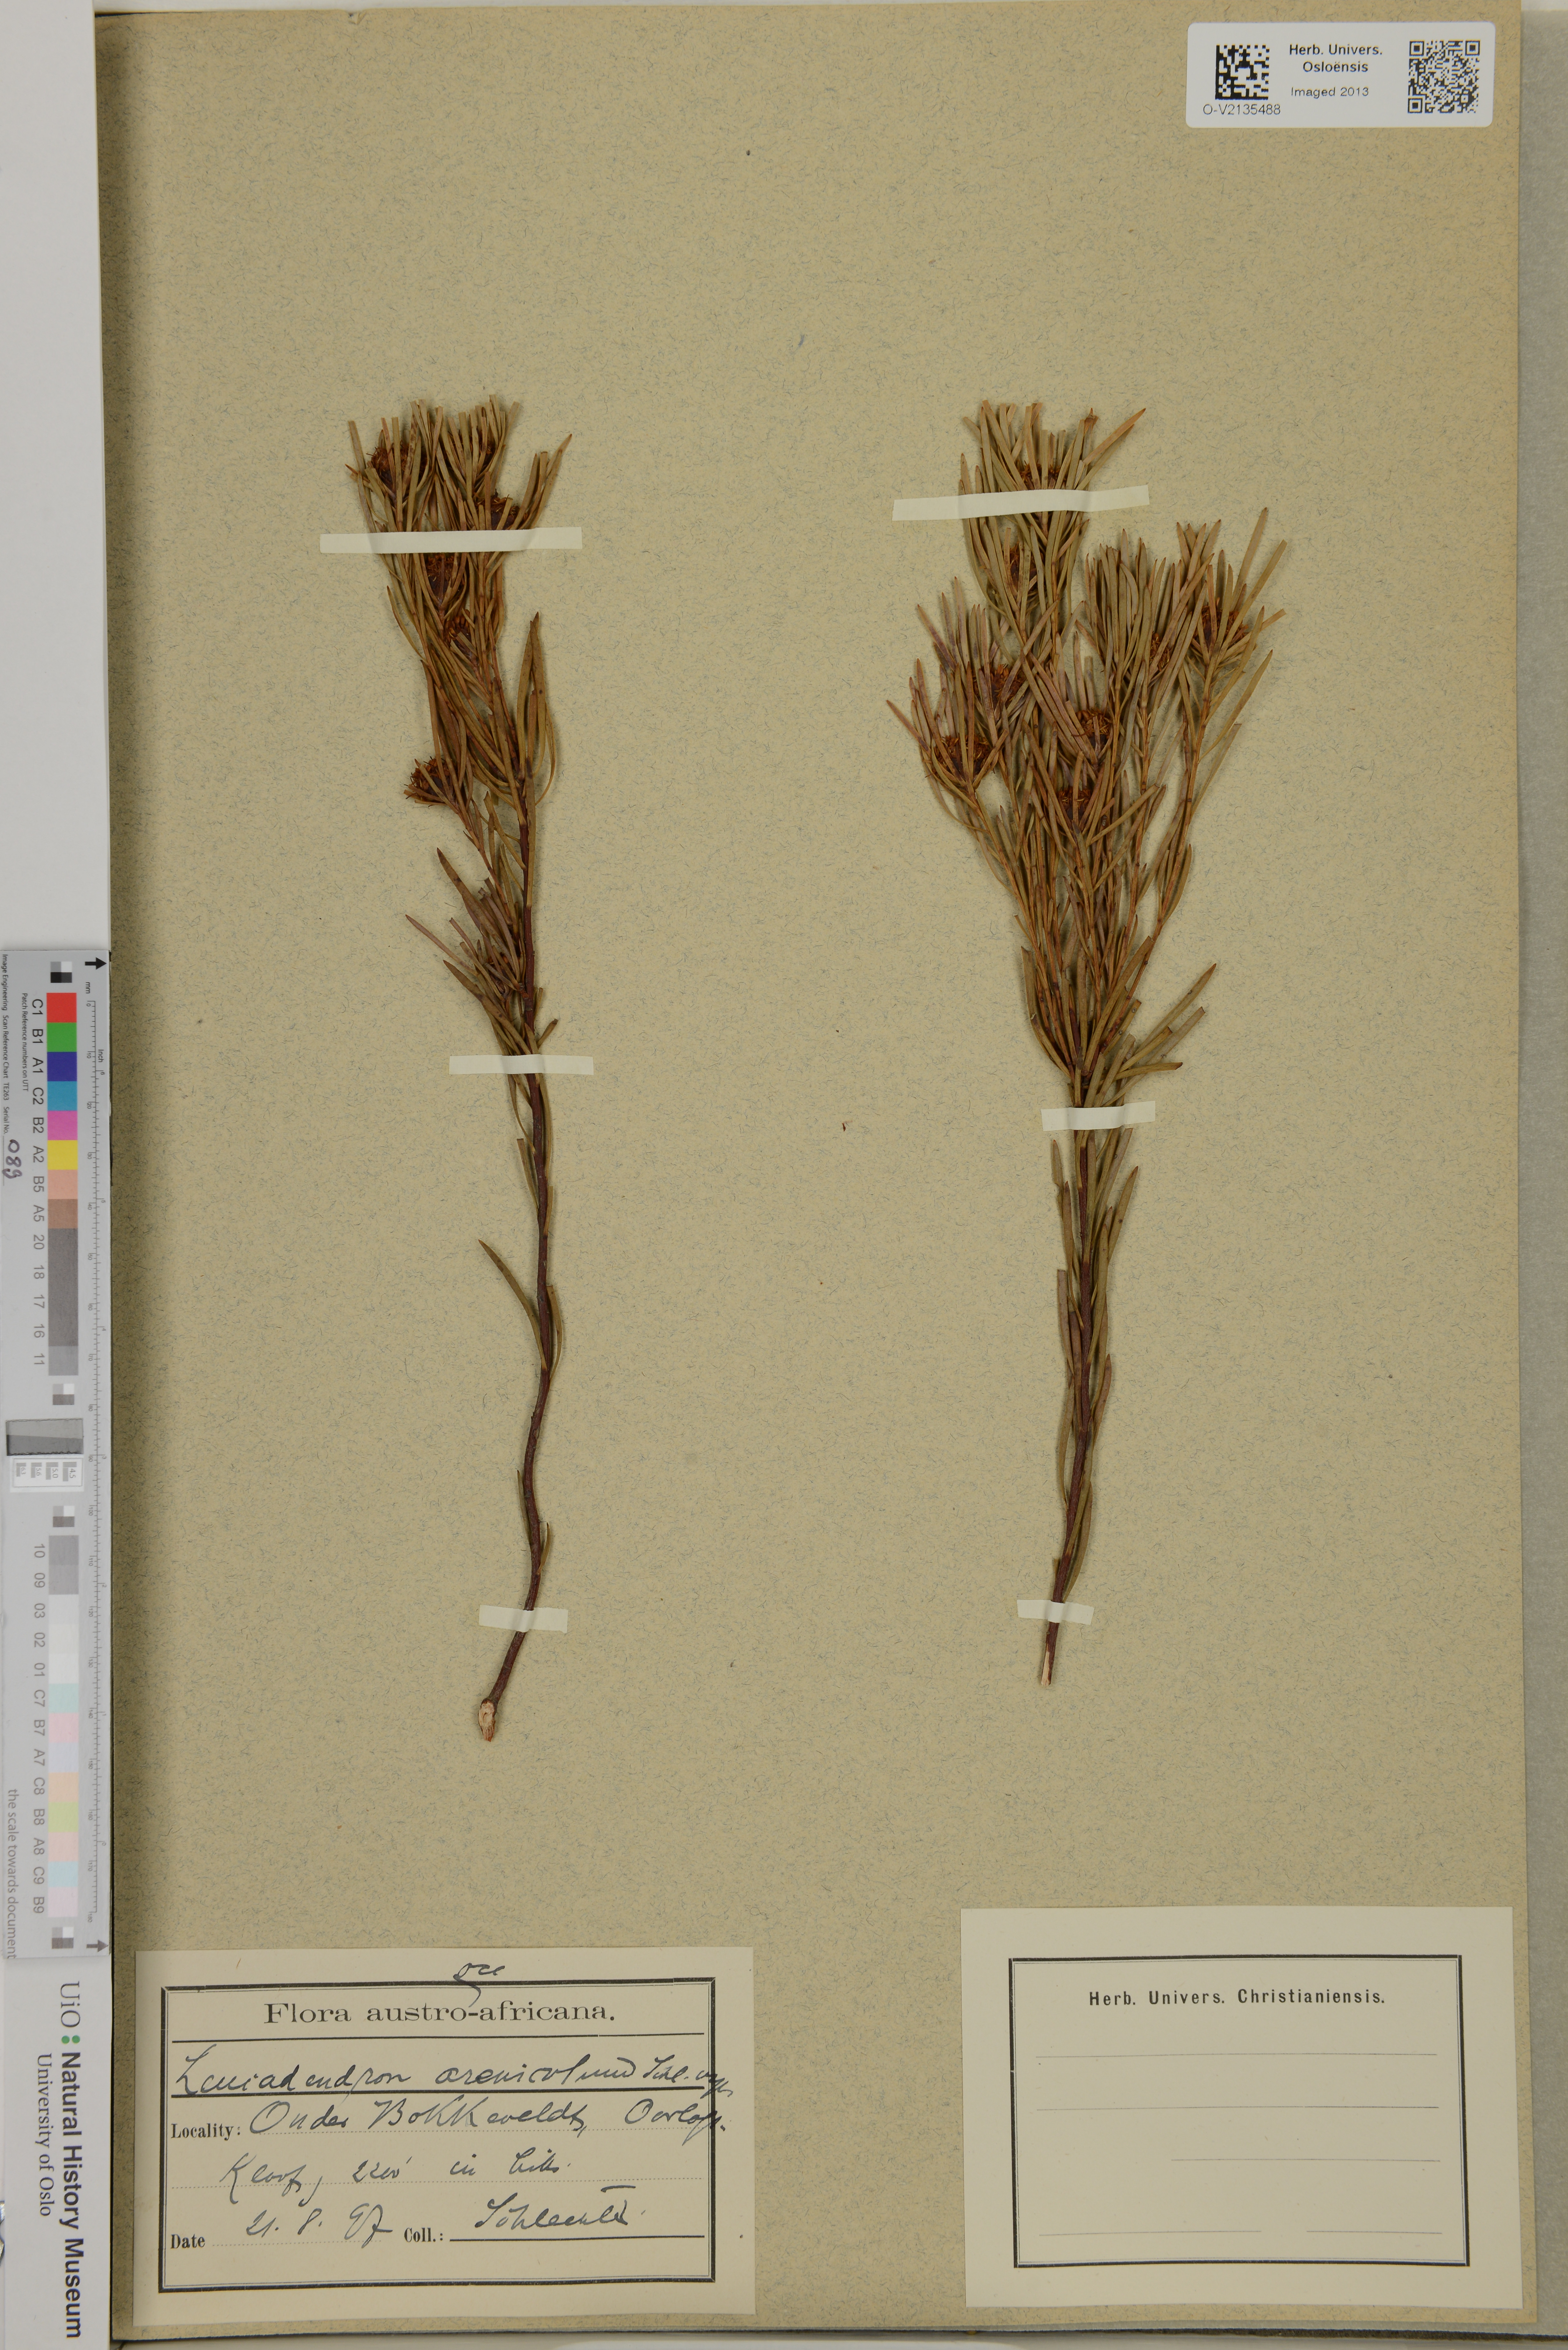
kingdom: Plantae
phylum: Tracheophyta
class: Magnoliopsida
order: Proteales
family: Proteaceae
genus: Leucadendron
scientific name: Leucadendron
